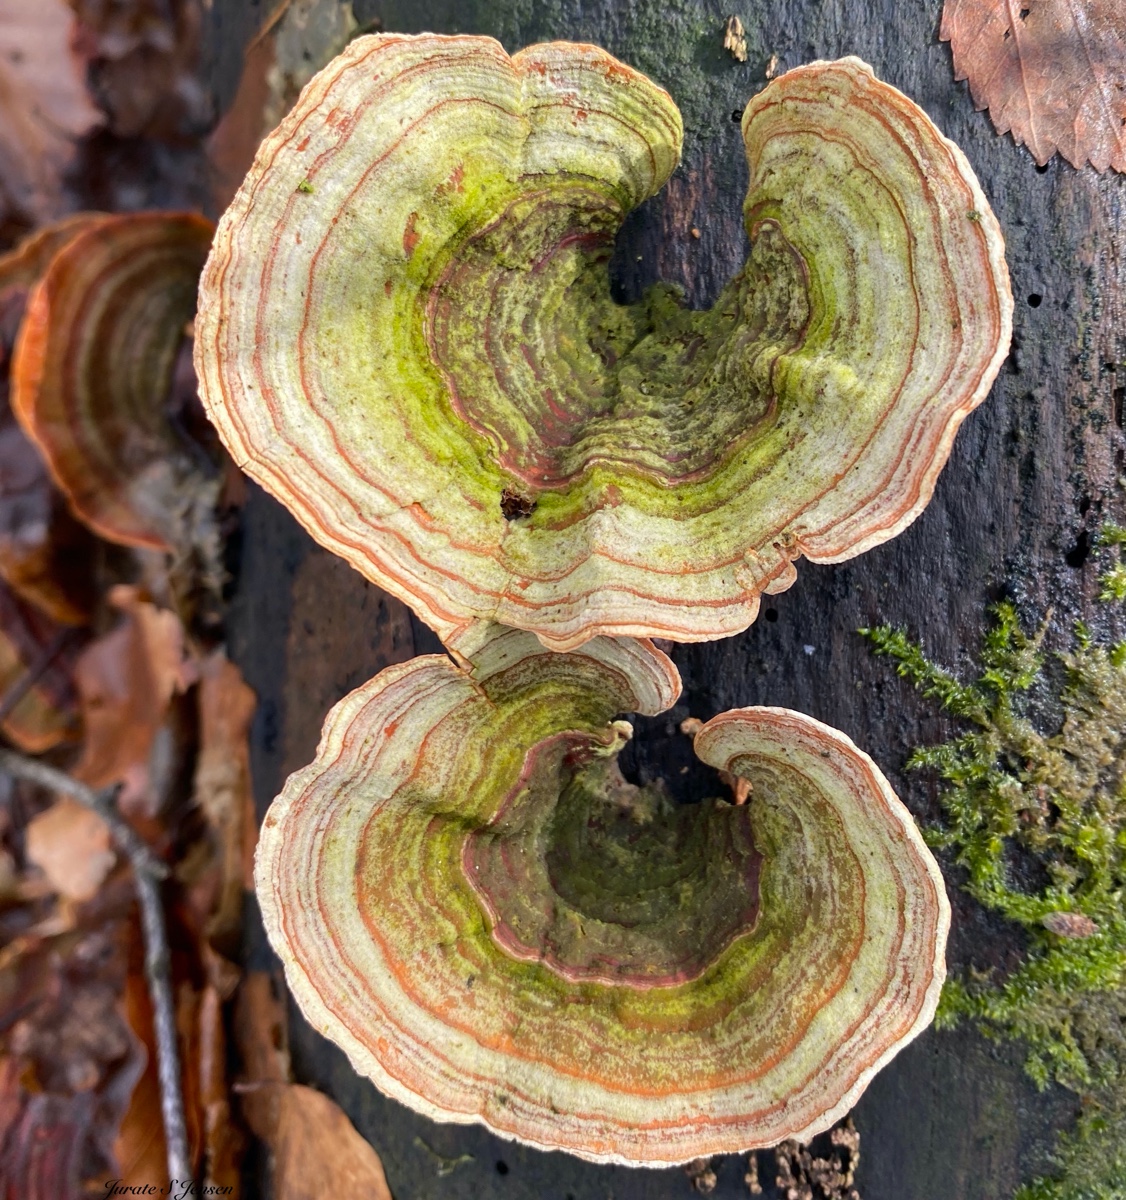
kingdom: Fungi
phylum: Basidiomycota
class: Agaricomycetes
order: Russulales
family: Stereaceae
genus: Stereum
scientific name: Stereum subtomentosum
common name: smuk lædersvamp
